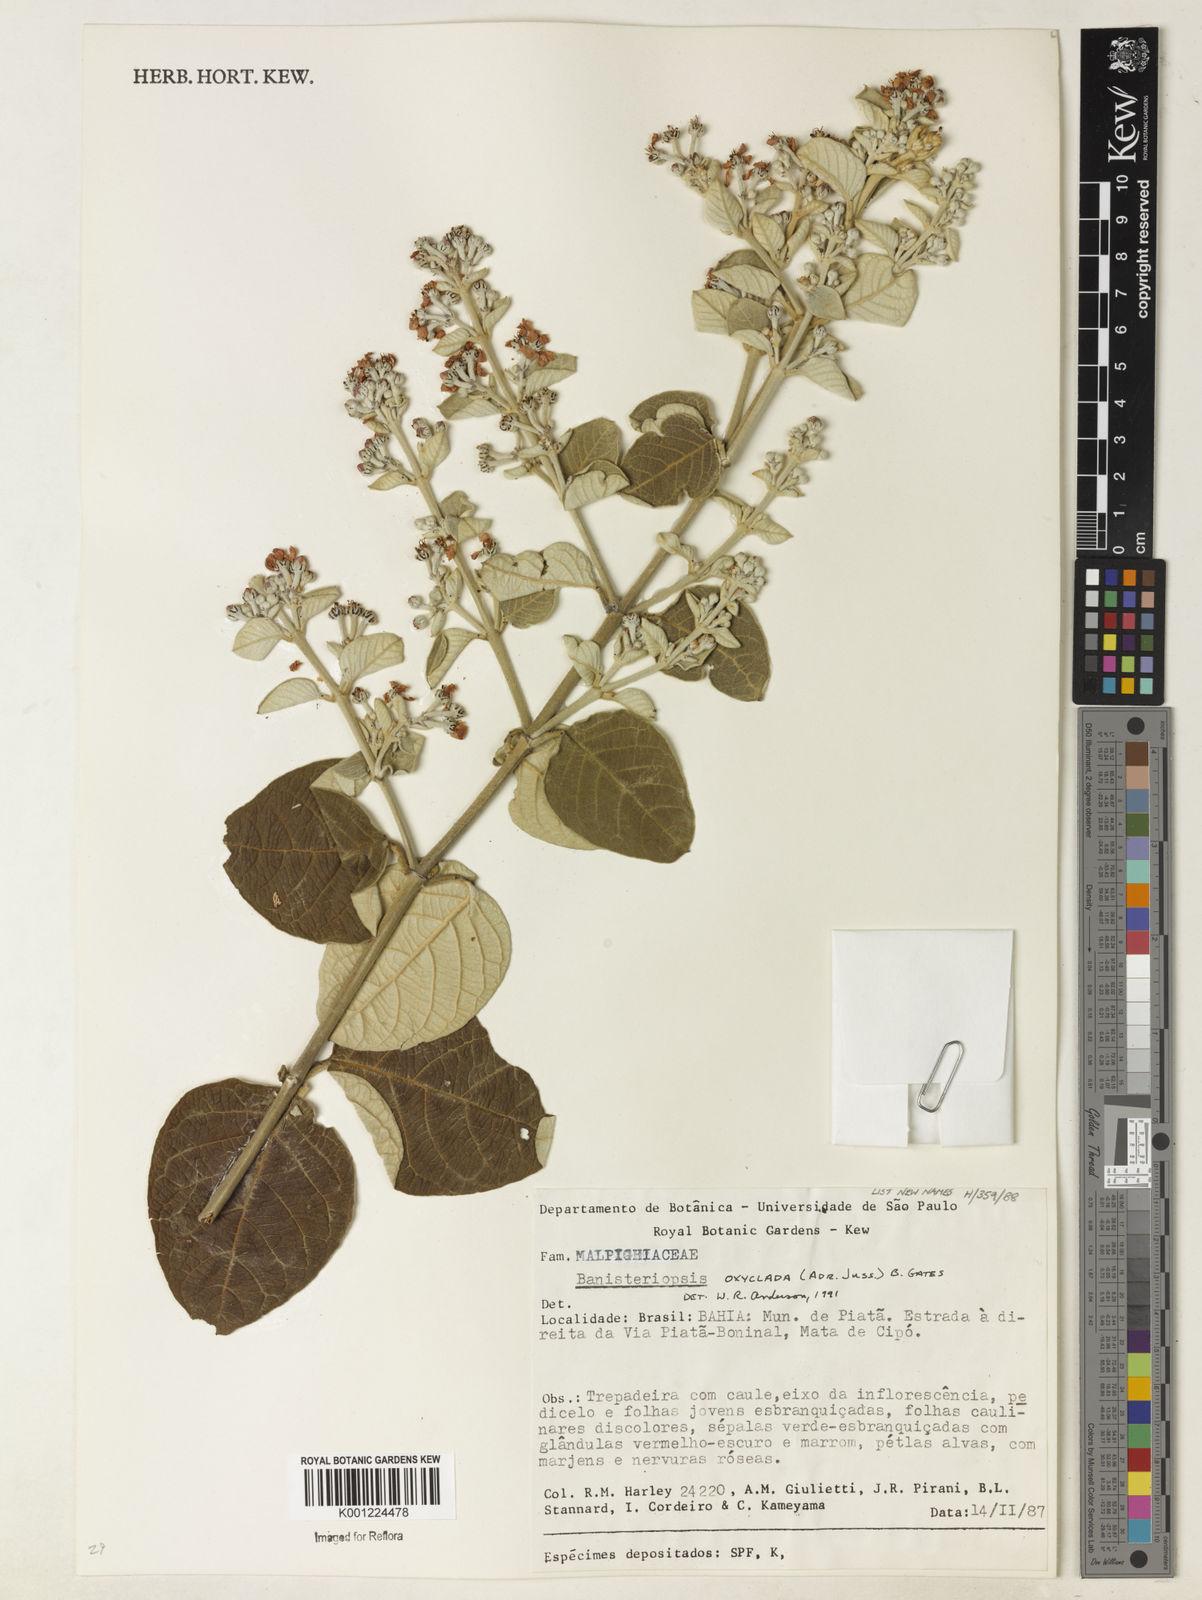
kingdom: Plantae
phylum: Tracheophyta
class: Magnoliopsida
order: Malpighiales
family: Malpighiaceae
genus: Banisteriopsis
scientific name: Banisteriopsis oxyclada
